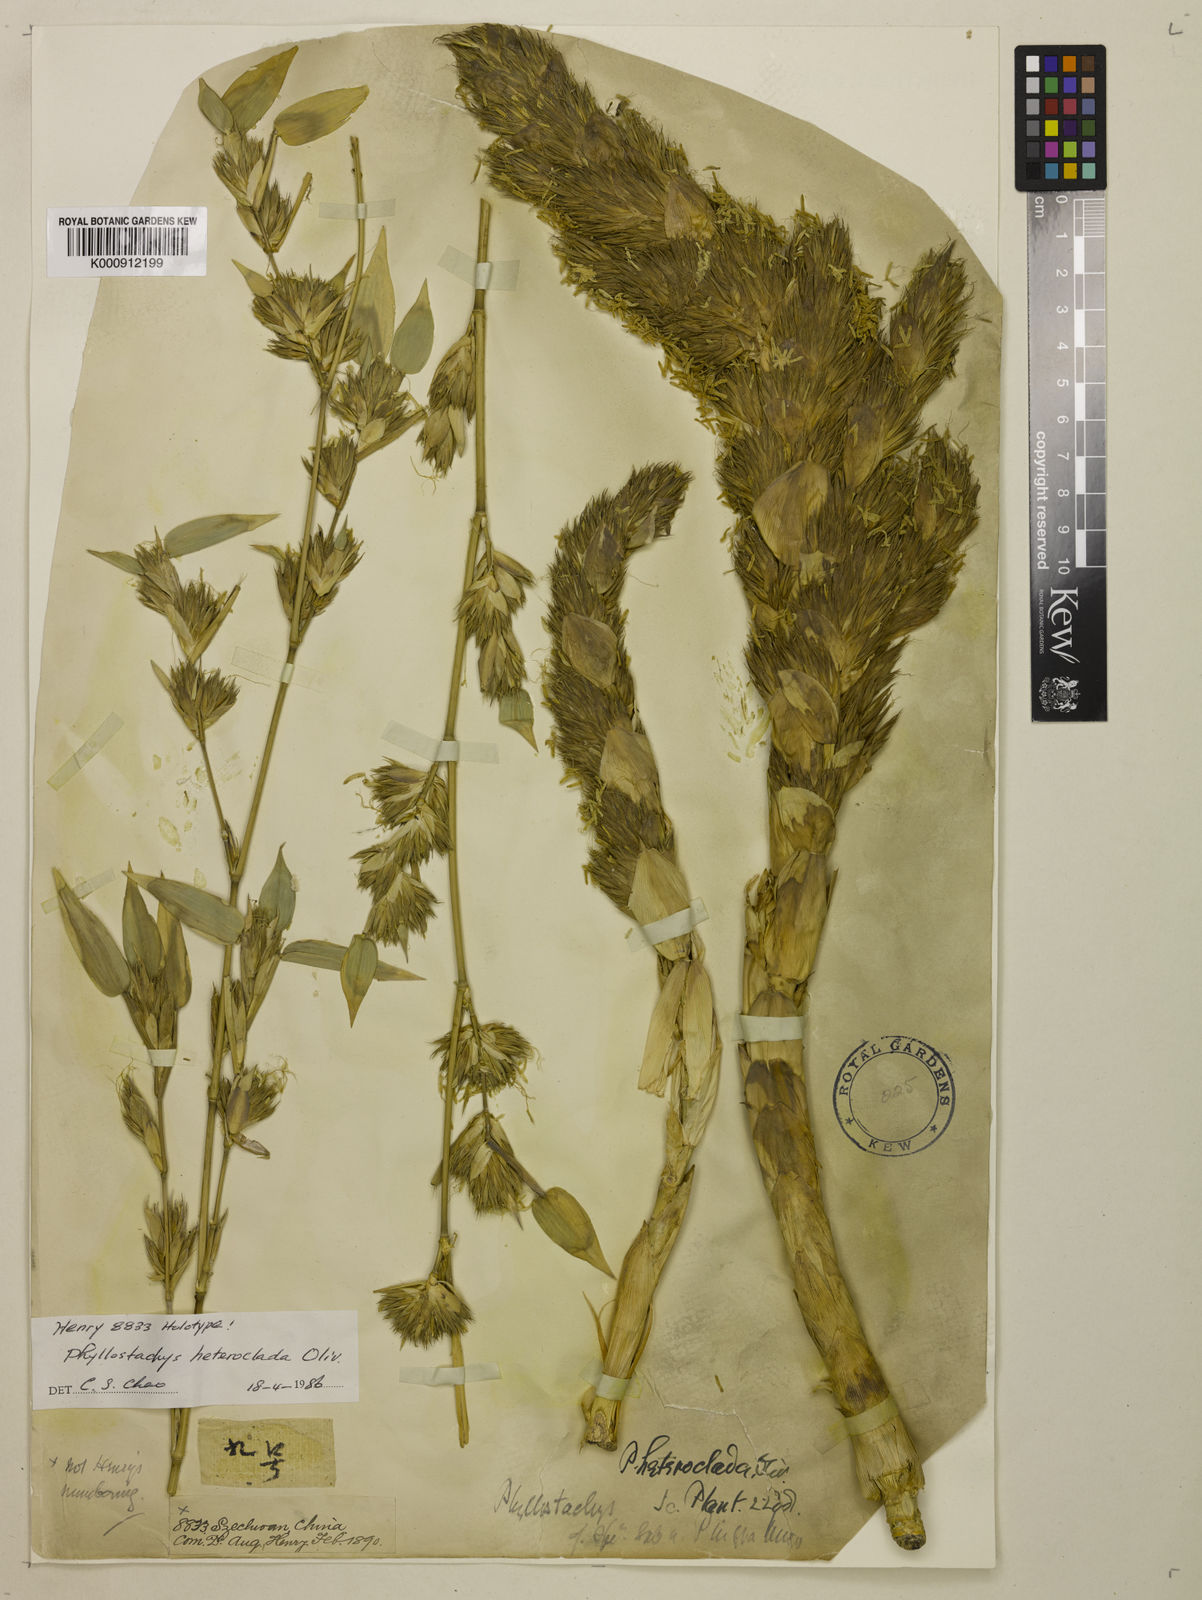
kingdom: Plantae
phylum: Tracheophyta
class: Liliopsida
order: Poales
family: Poaceae
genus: Phyllostachys
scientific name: Phyllostachys heteroclada
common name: Fishscale bamboo
